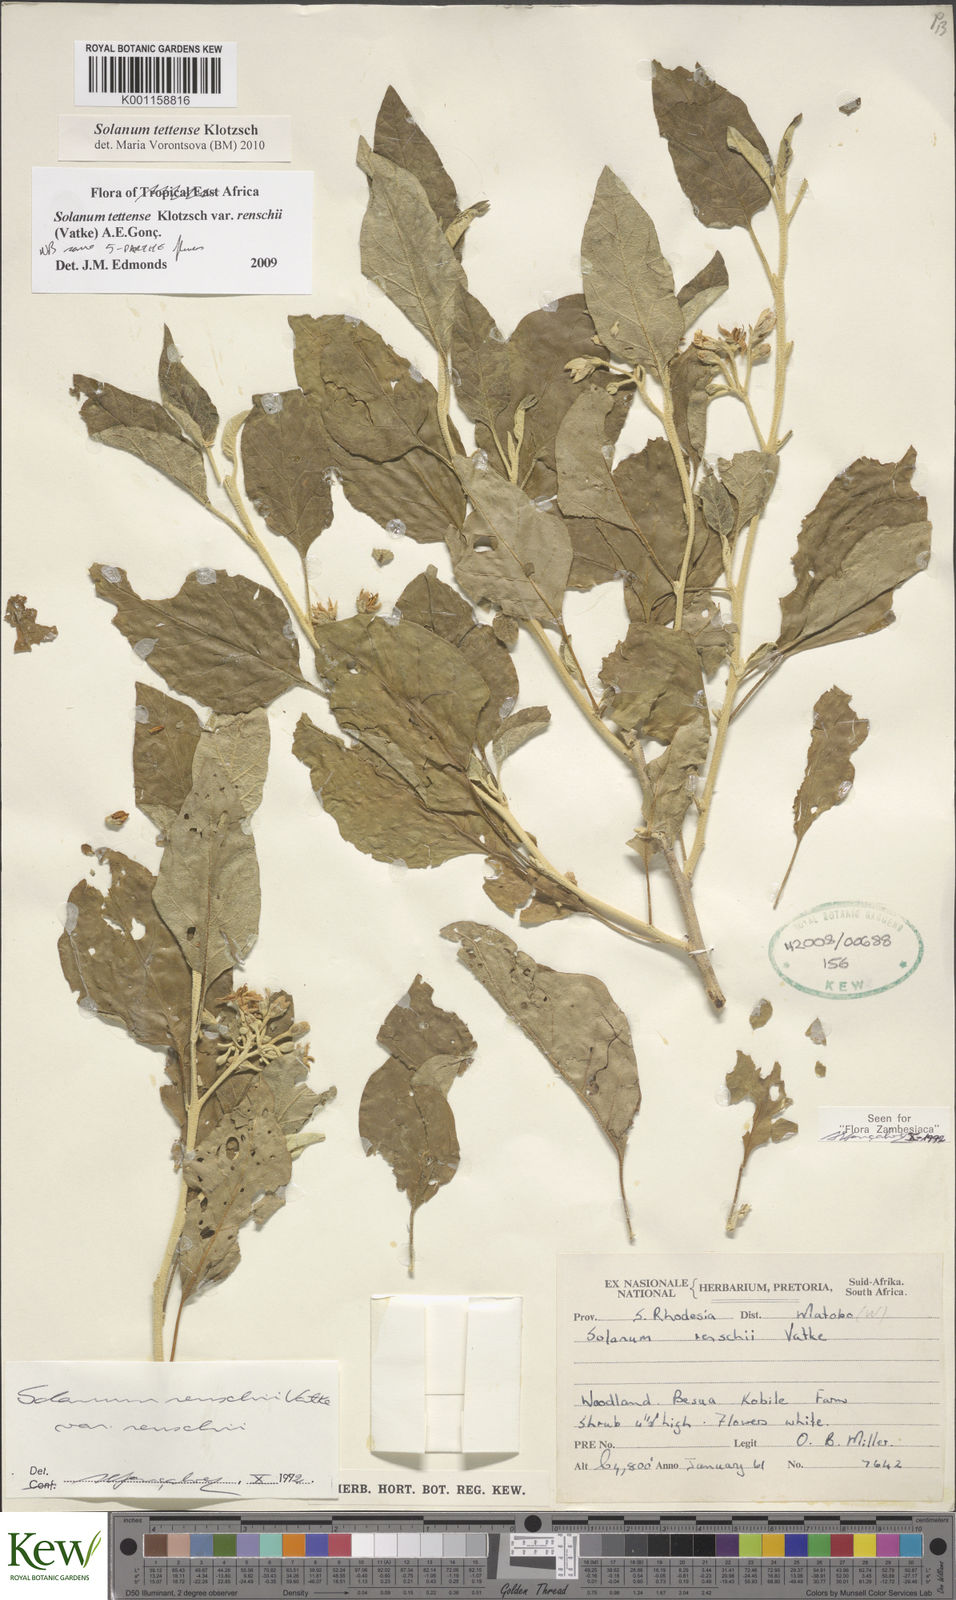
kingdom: Plantae
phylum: Tracheophyta
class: Magnoliopsida
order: Solanales
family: Solanaceae
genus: Solanum
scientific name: Solanum tettense
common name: Mozambique bitter apple
